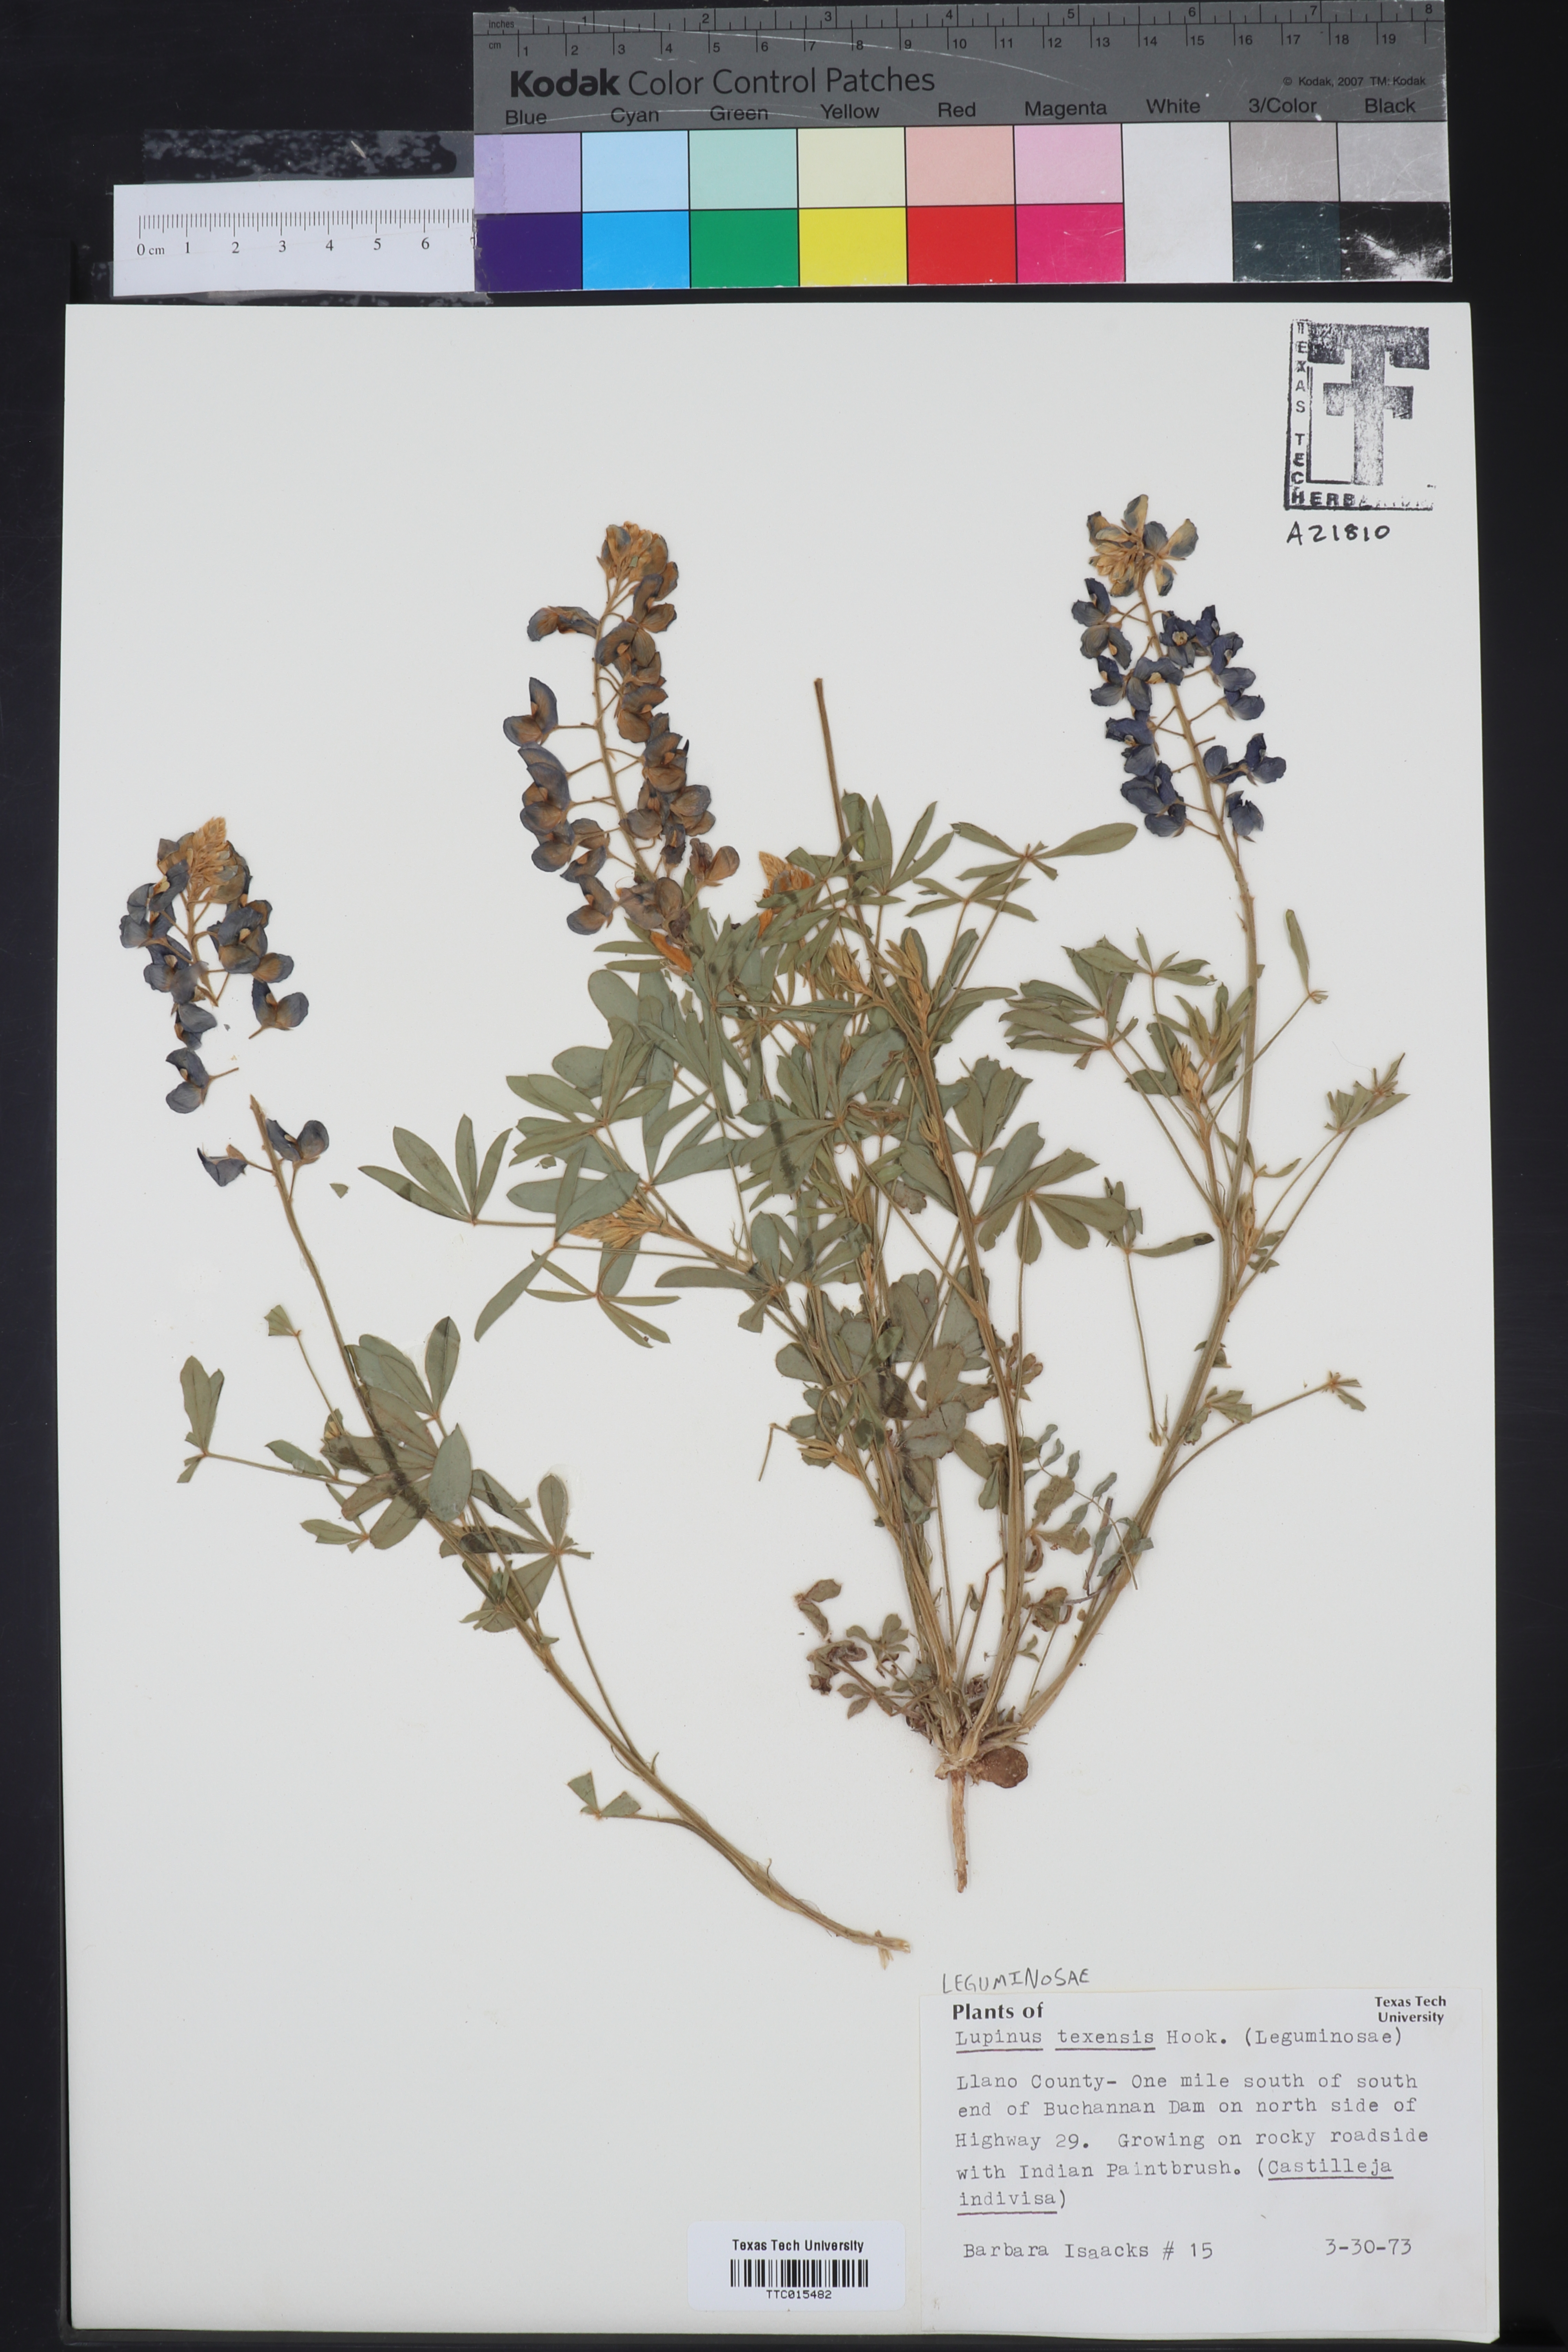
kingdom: Plantae
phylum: Tracheophyta
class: Magnoliopsida
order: Fabales
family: Fabaceae
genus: Lupinus
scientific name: Lupinus texensis
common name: Texas bluebonnet
